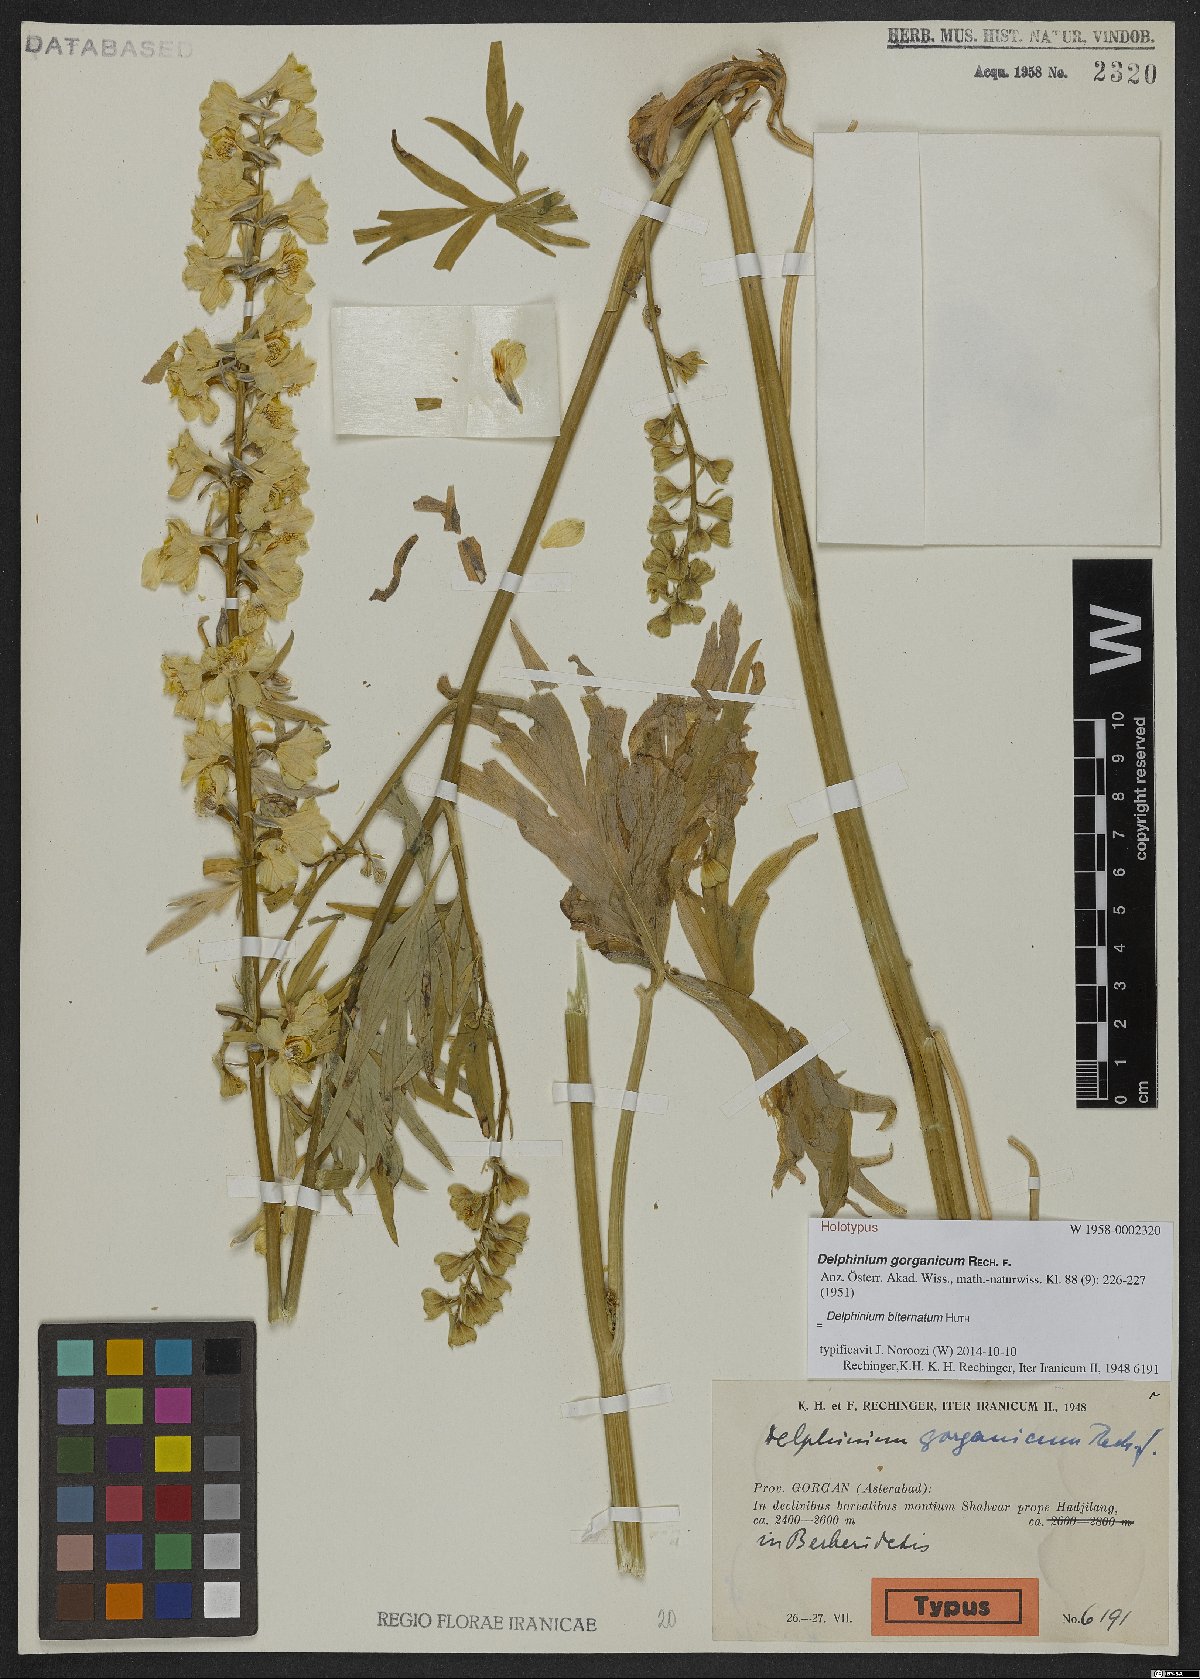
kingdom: Plantae
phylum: Tracheophyta
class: Magnoliopsida
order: Ranunculales
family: Ranunculaceae
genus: Delphinium
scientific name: Delphinium biternatum
